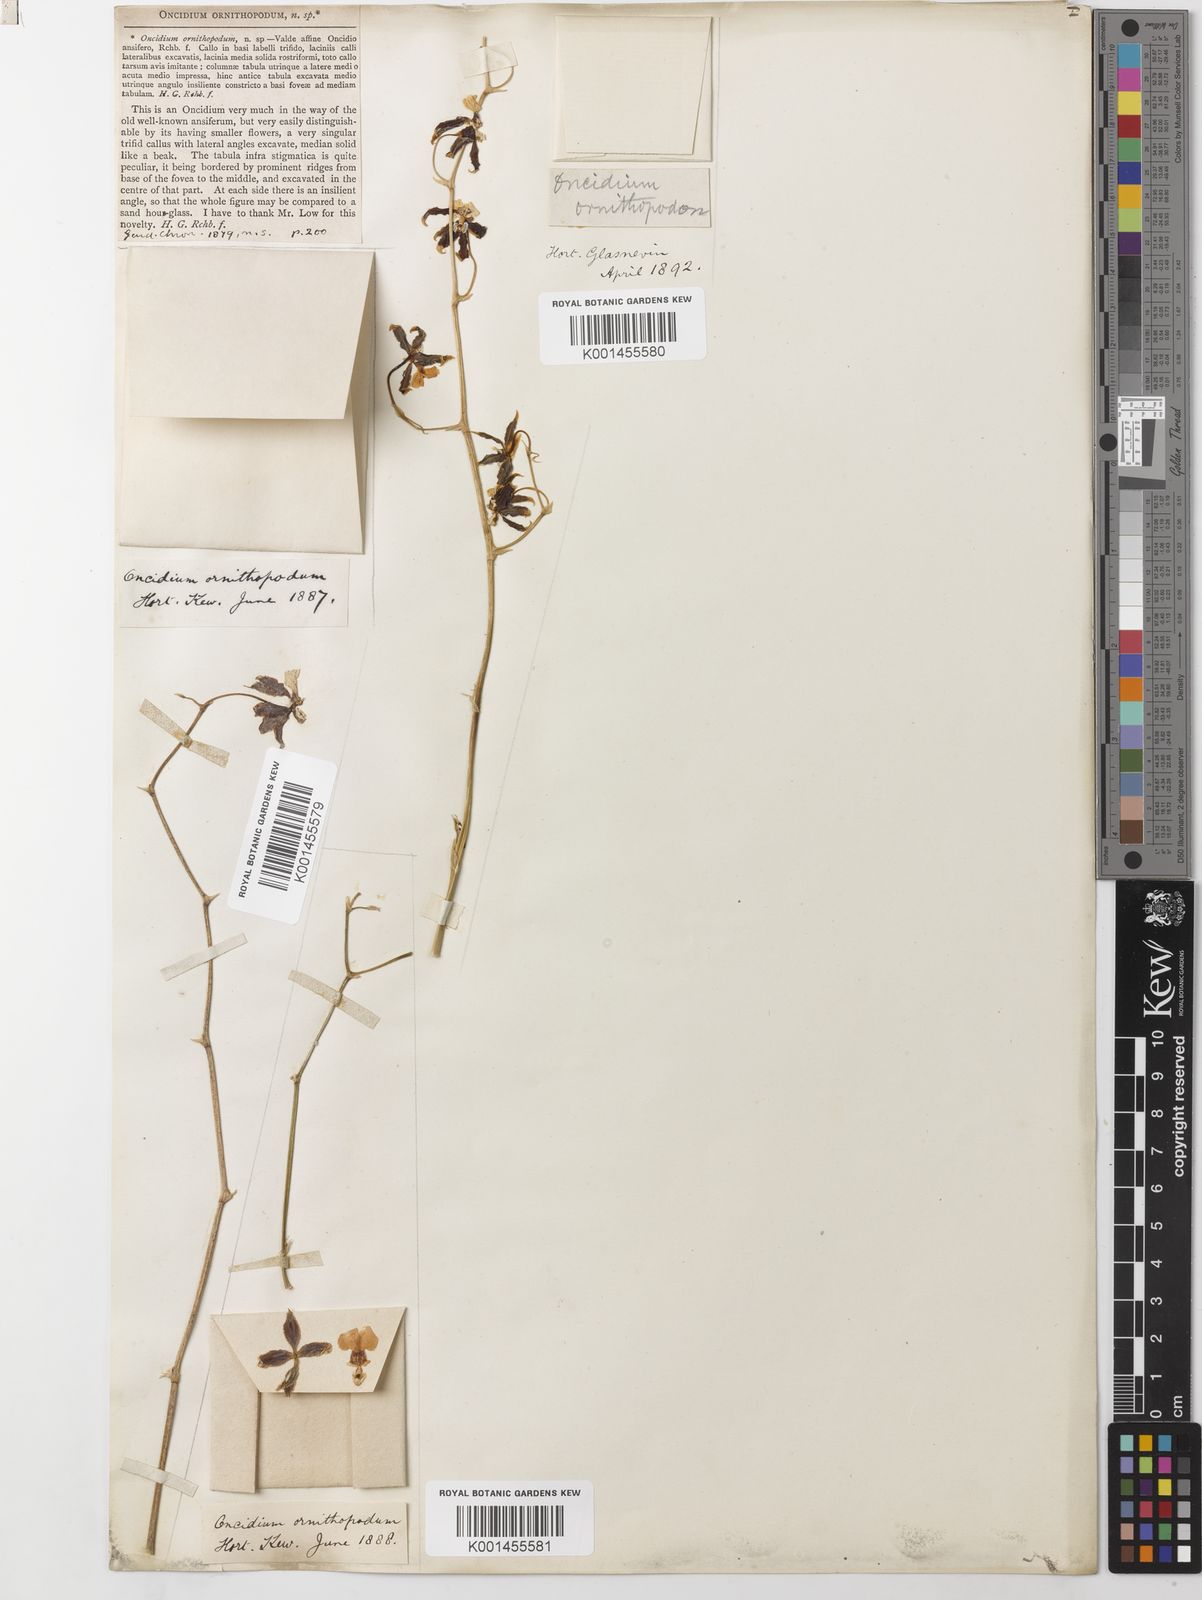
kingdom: Plantae
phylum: Tracheophyta
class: Liliopsida
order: Asparagales
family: Orchidaceae
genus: Oncidium
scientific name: Oncidium ornithopodum
